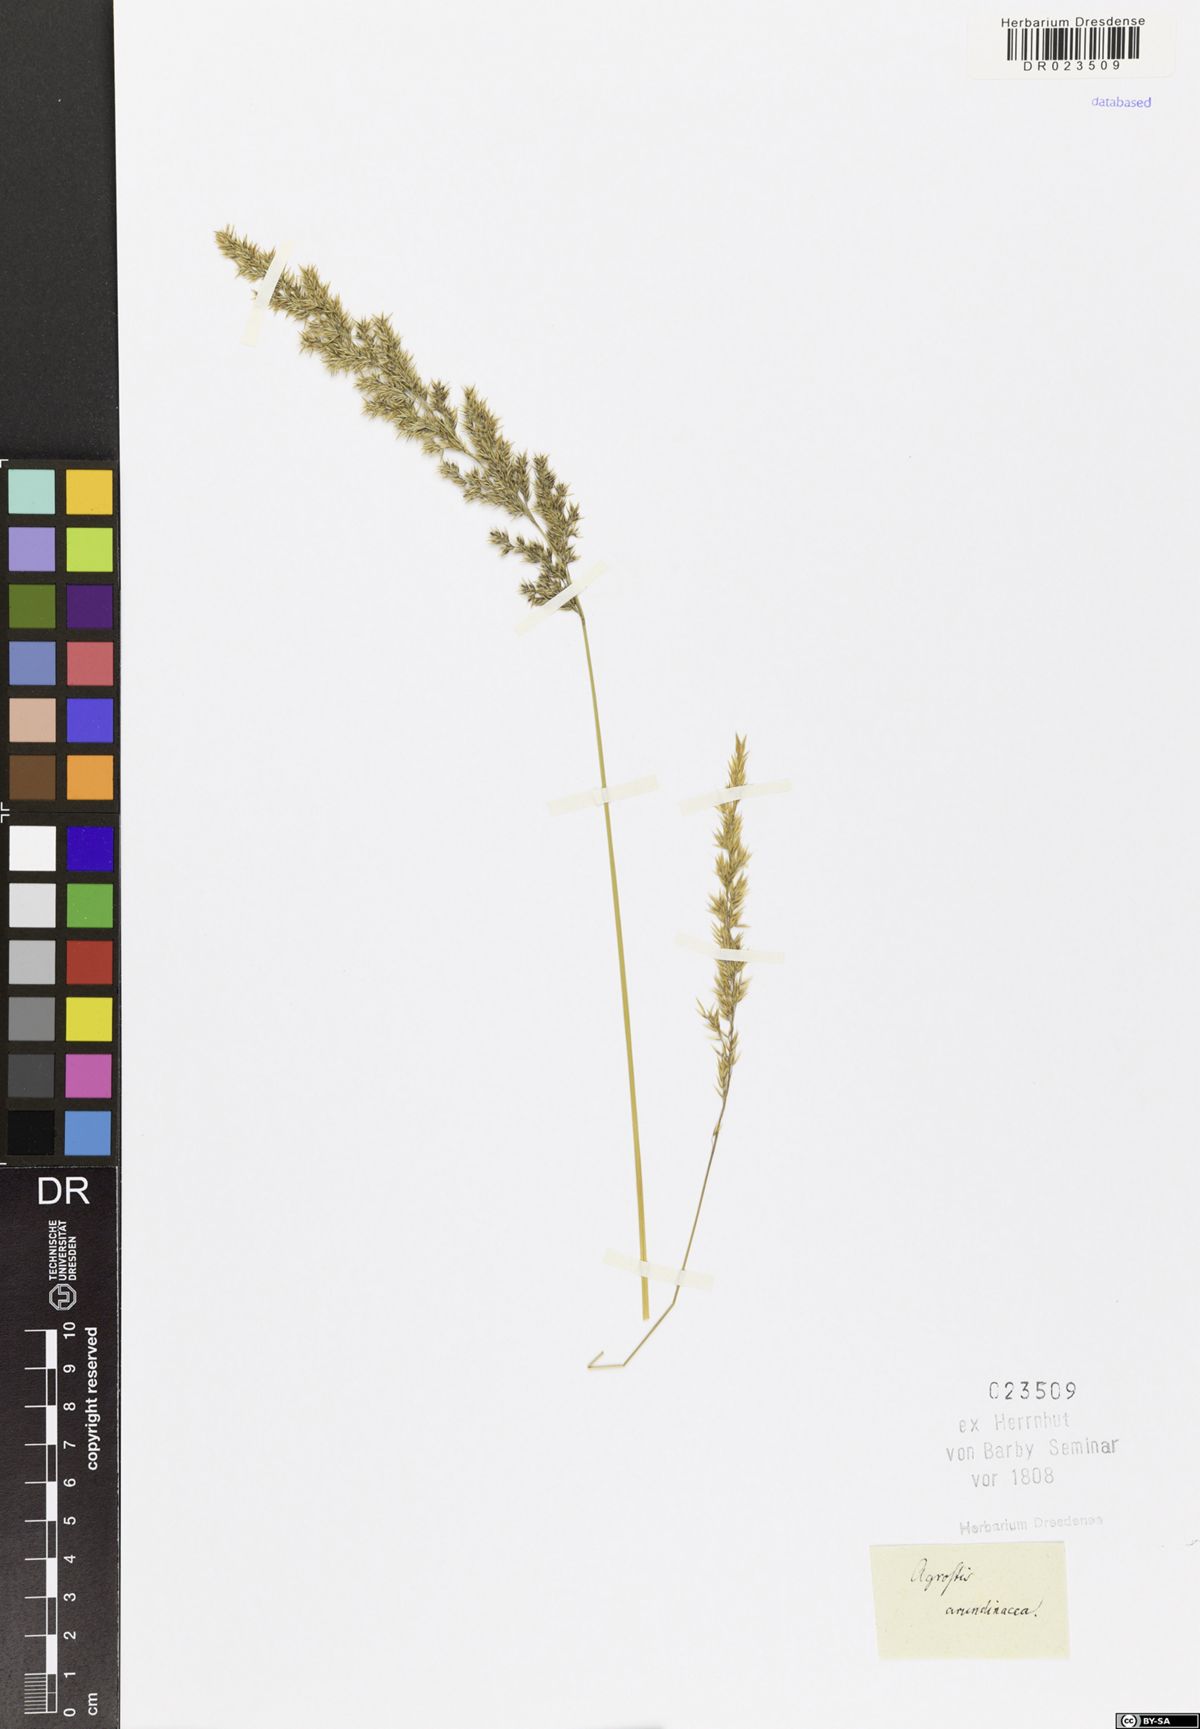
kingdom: Plantae
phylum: Tracheophyta
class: Liliopsida
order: Poales
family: Poaceae
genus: Calamagrostis
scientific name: Calamagrostis arundinacea
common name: Metskastik
